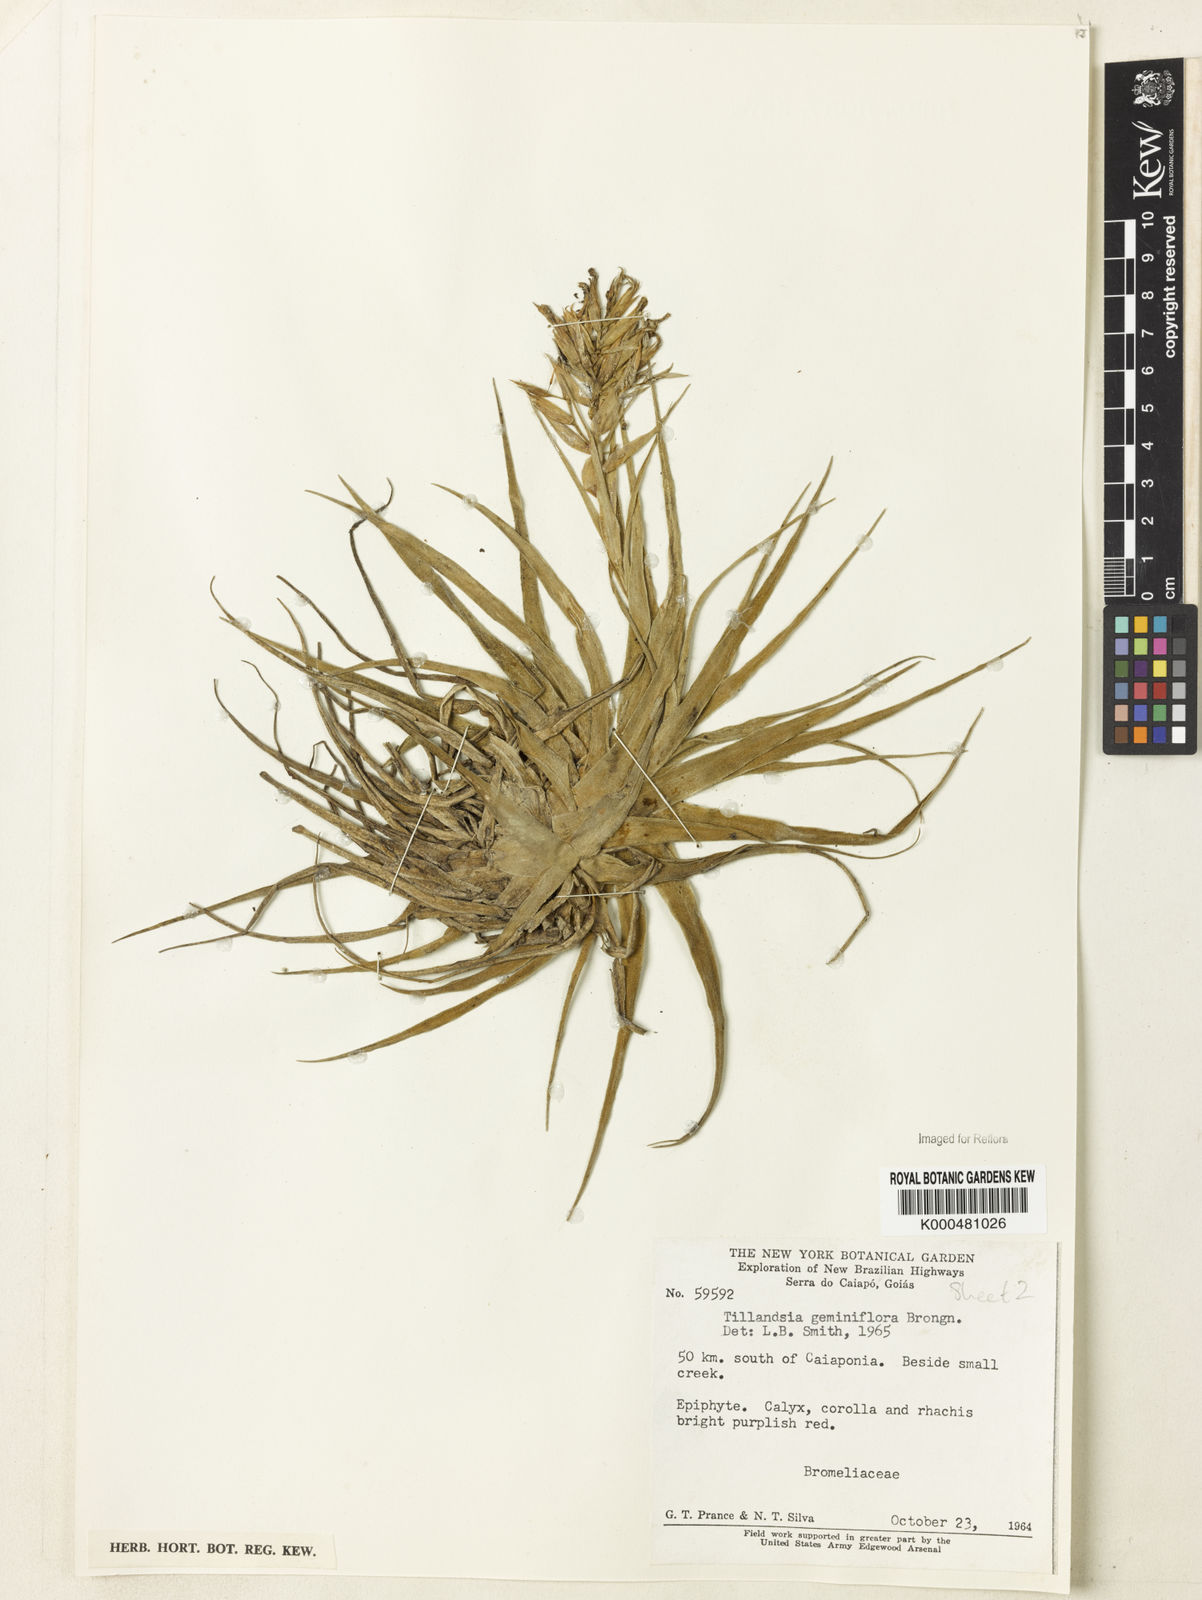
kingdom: Plantae
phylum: Tracheophyta
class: Liliopsida
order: Poales
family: Bromeliaceae
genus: Tillandsia
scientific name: Tillandsia geminiflora
